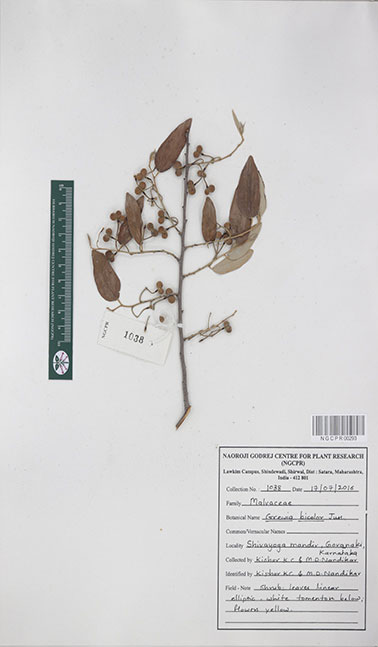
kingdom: Plantae
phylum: Tracheophyta
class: Magnoliopsida
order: Malvales
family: Malvaceae
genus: Grewia
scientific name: Grewia bicolor
